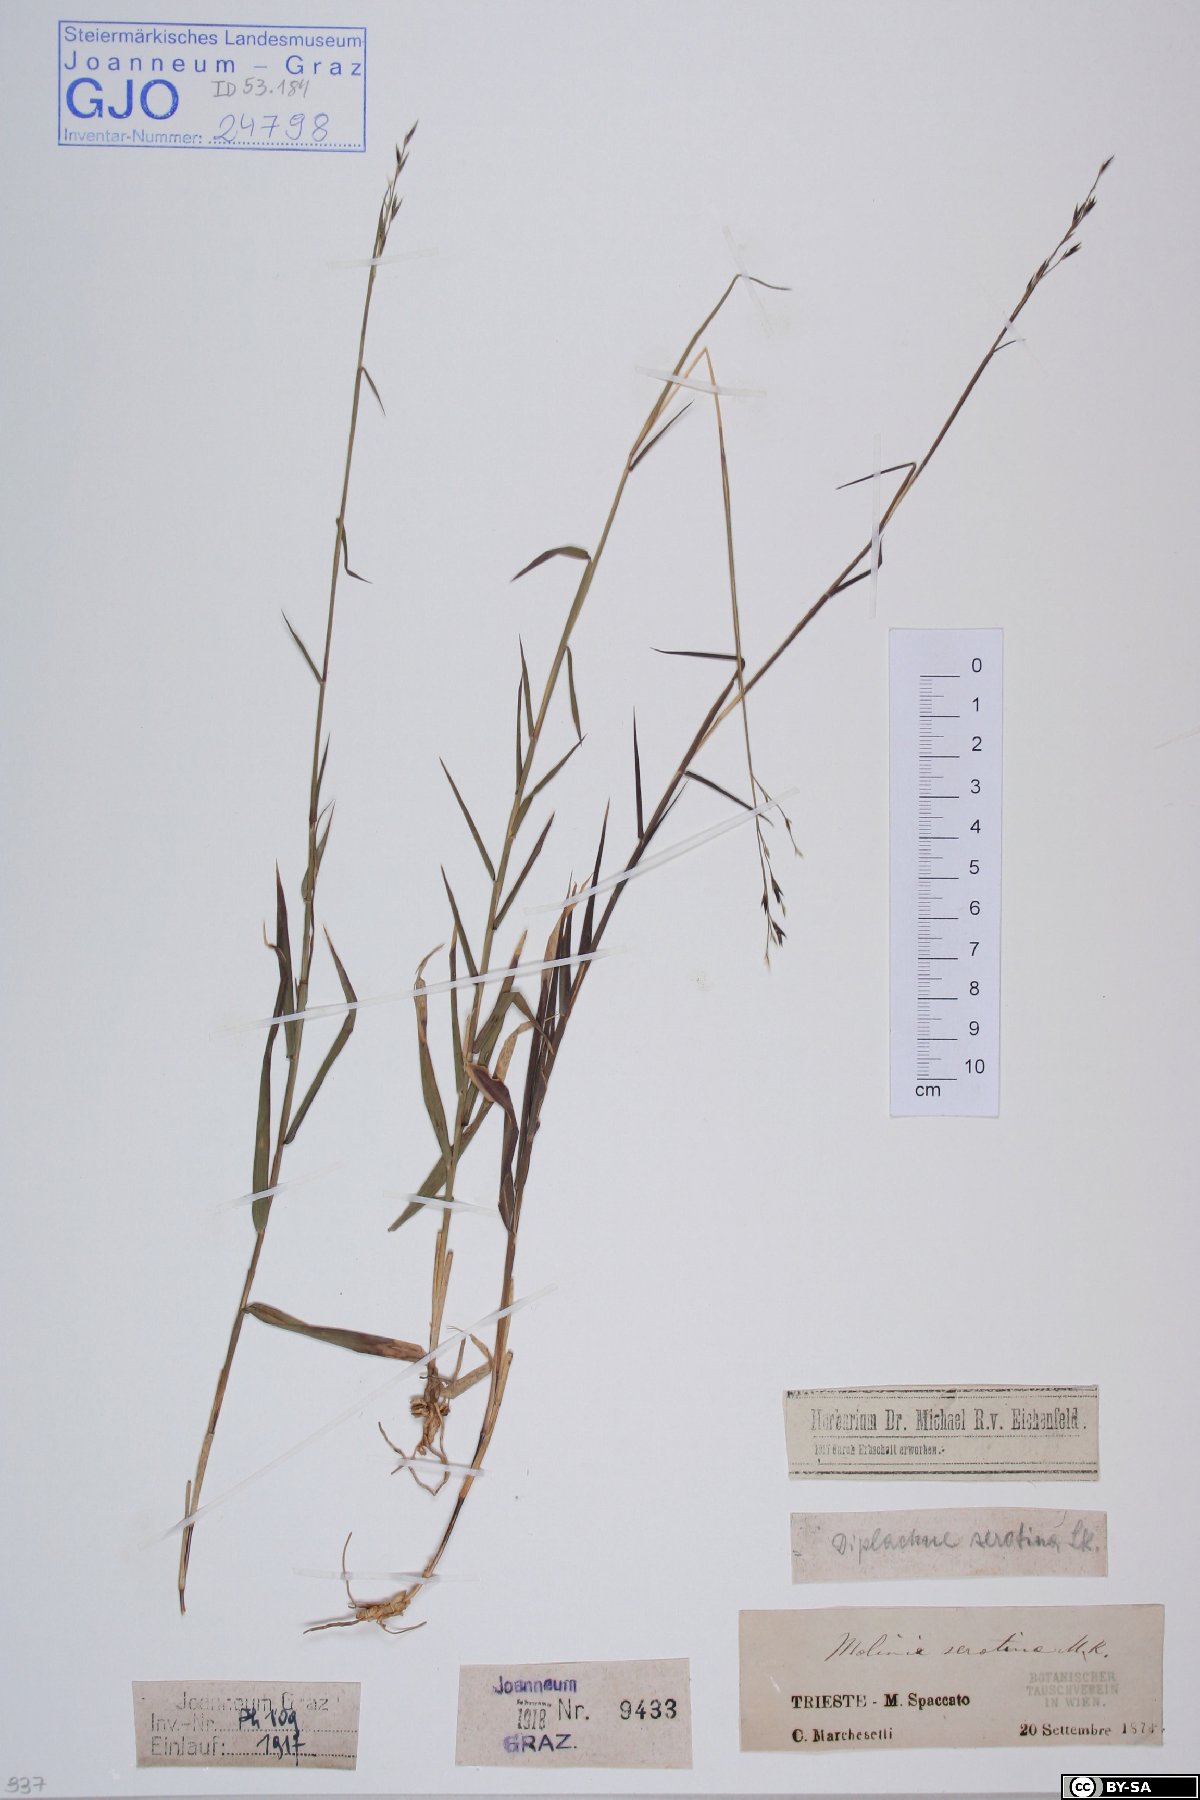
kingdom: Plantae
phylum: Tracheophyta
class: Liliopsida
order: Poales
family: Poaceae
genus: Cleistogenes
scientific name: Cleistogenes serotina
